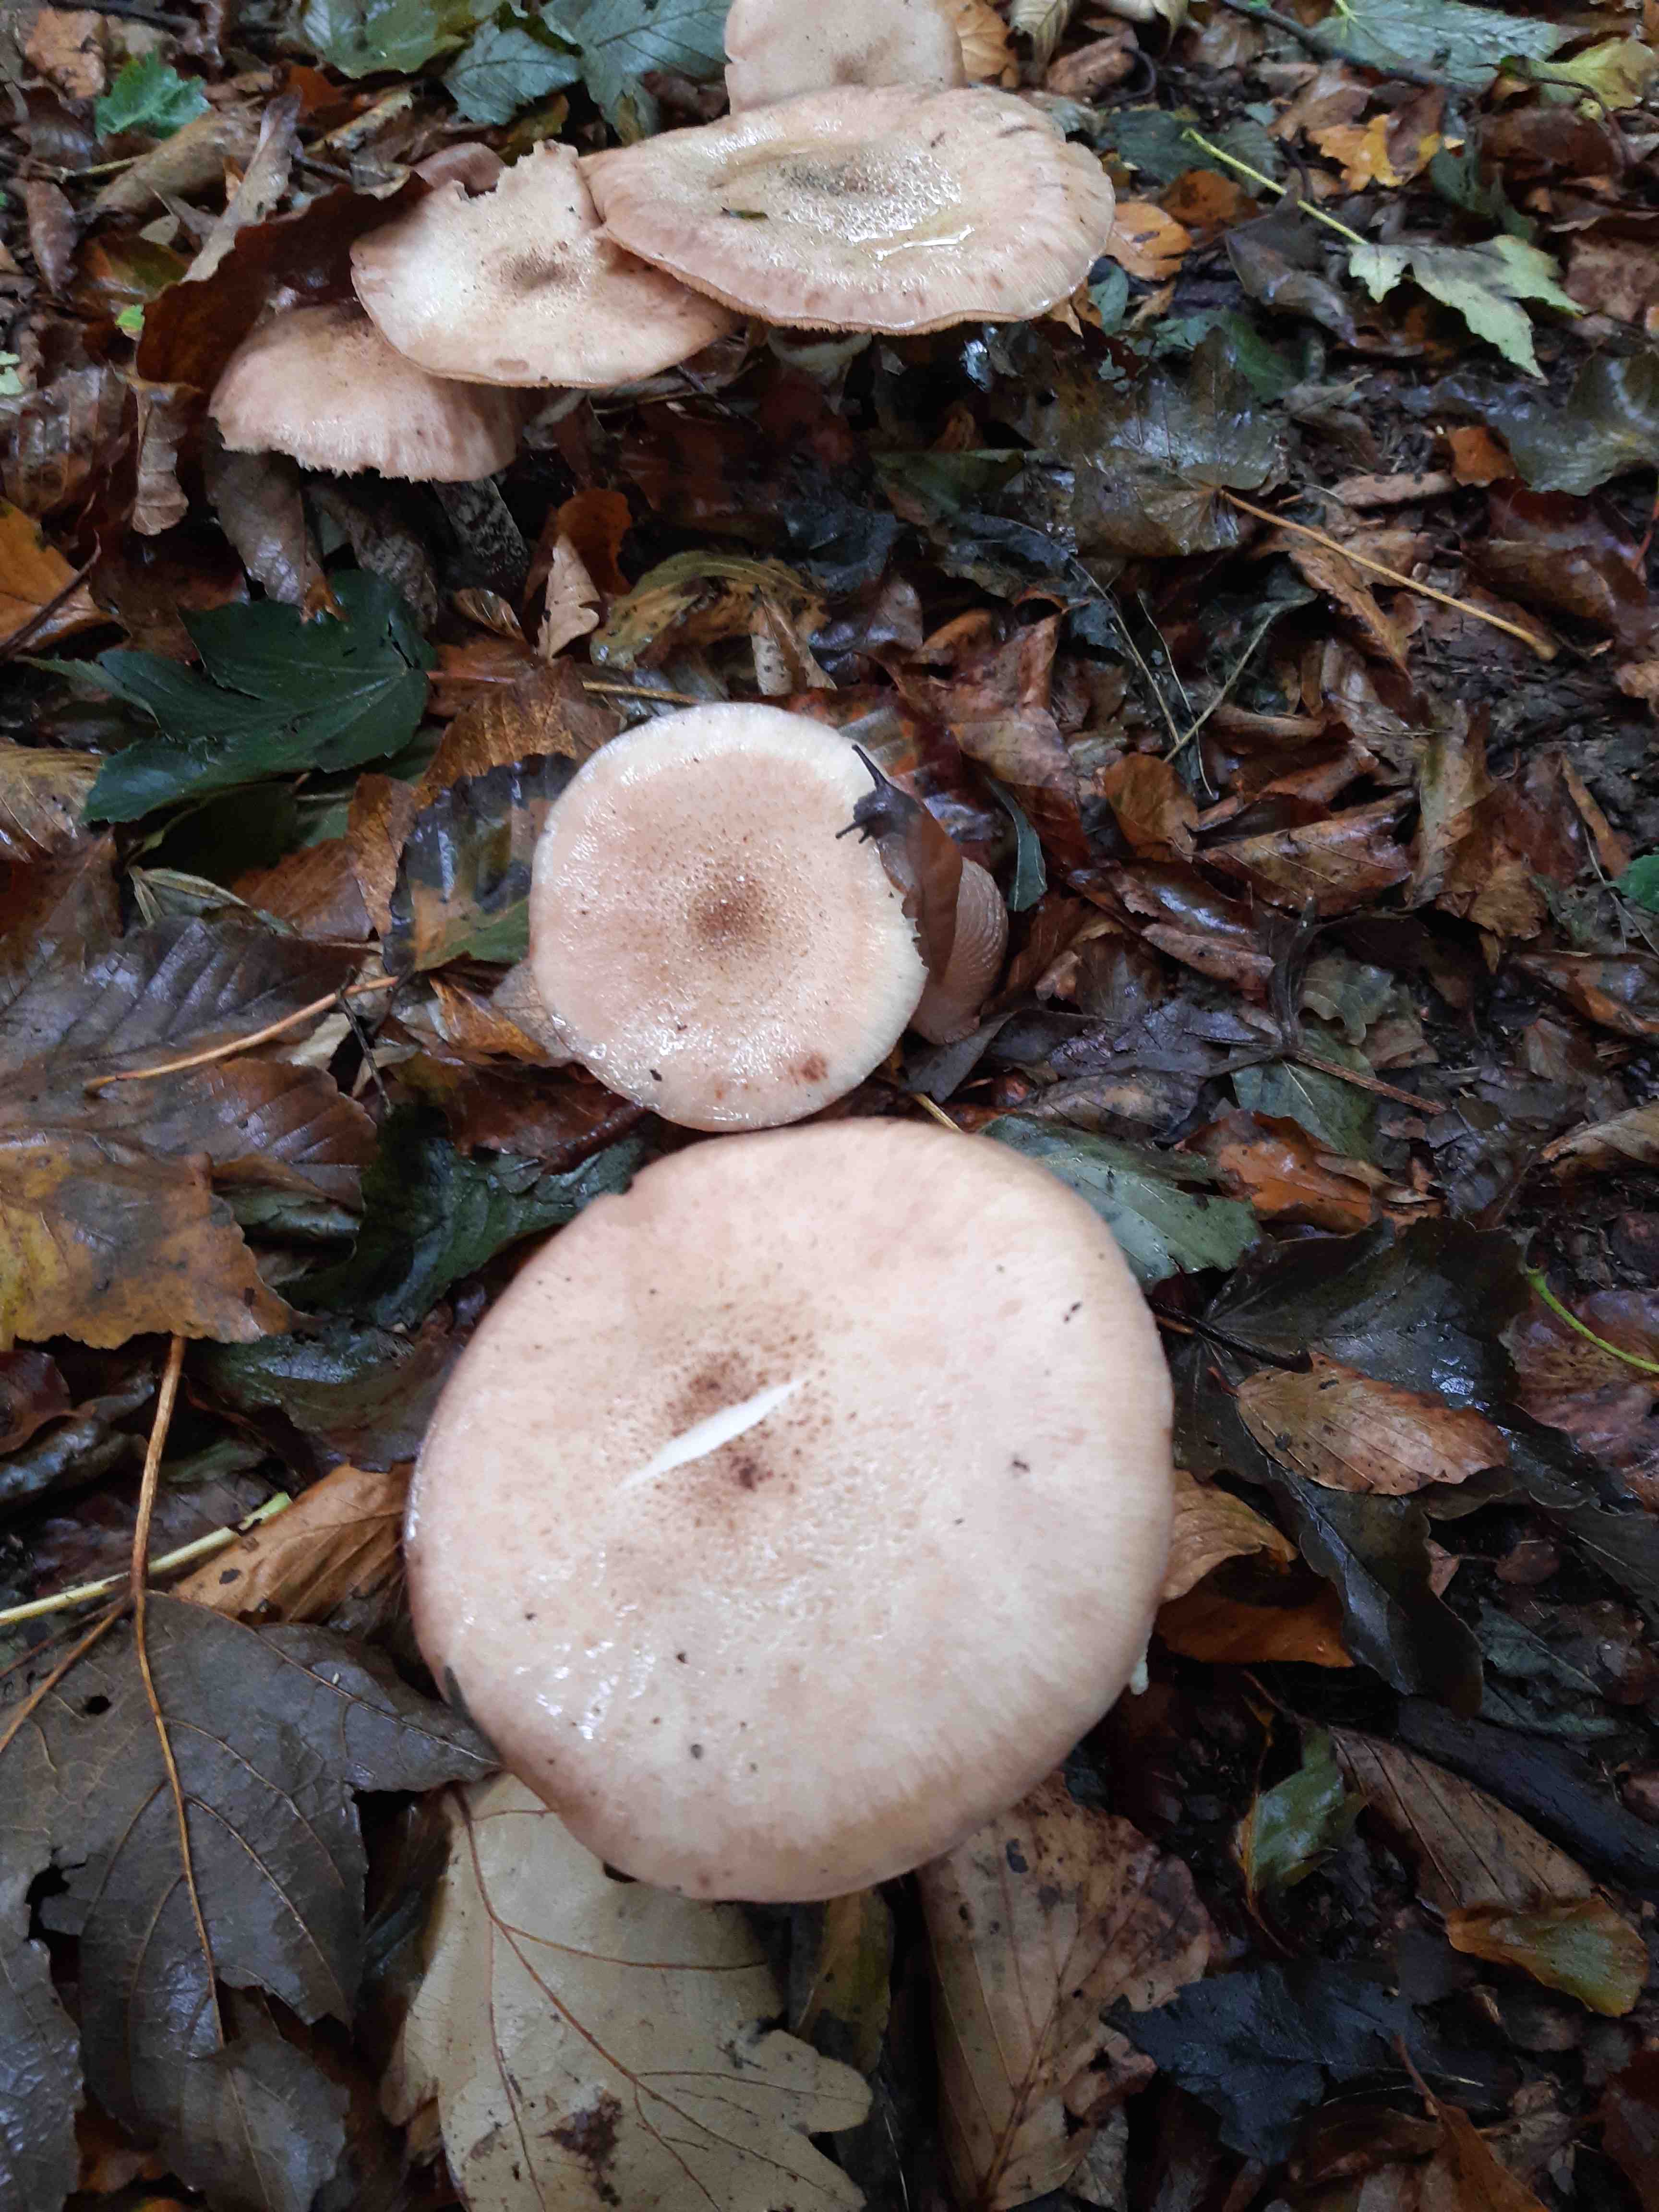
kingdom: Fungi
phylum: Basidiomycota
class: Agaricomycetes
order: Agaricales
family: Physalacriaceae
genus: Armillaria
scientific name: Armillaria
